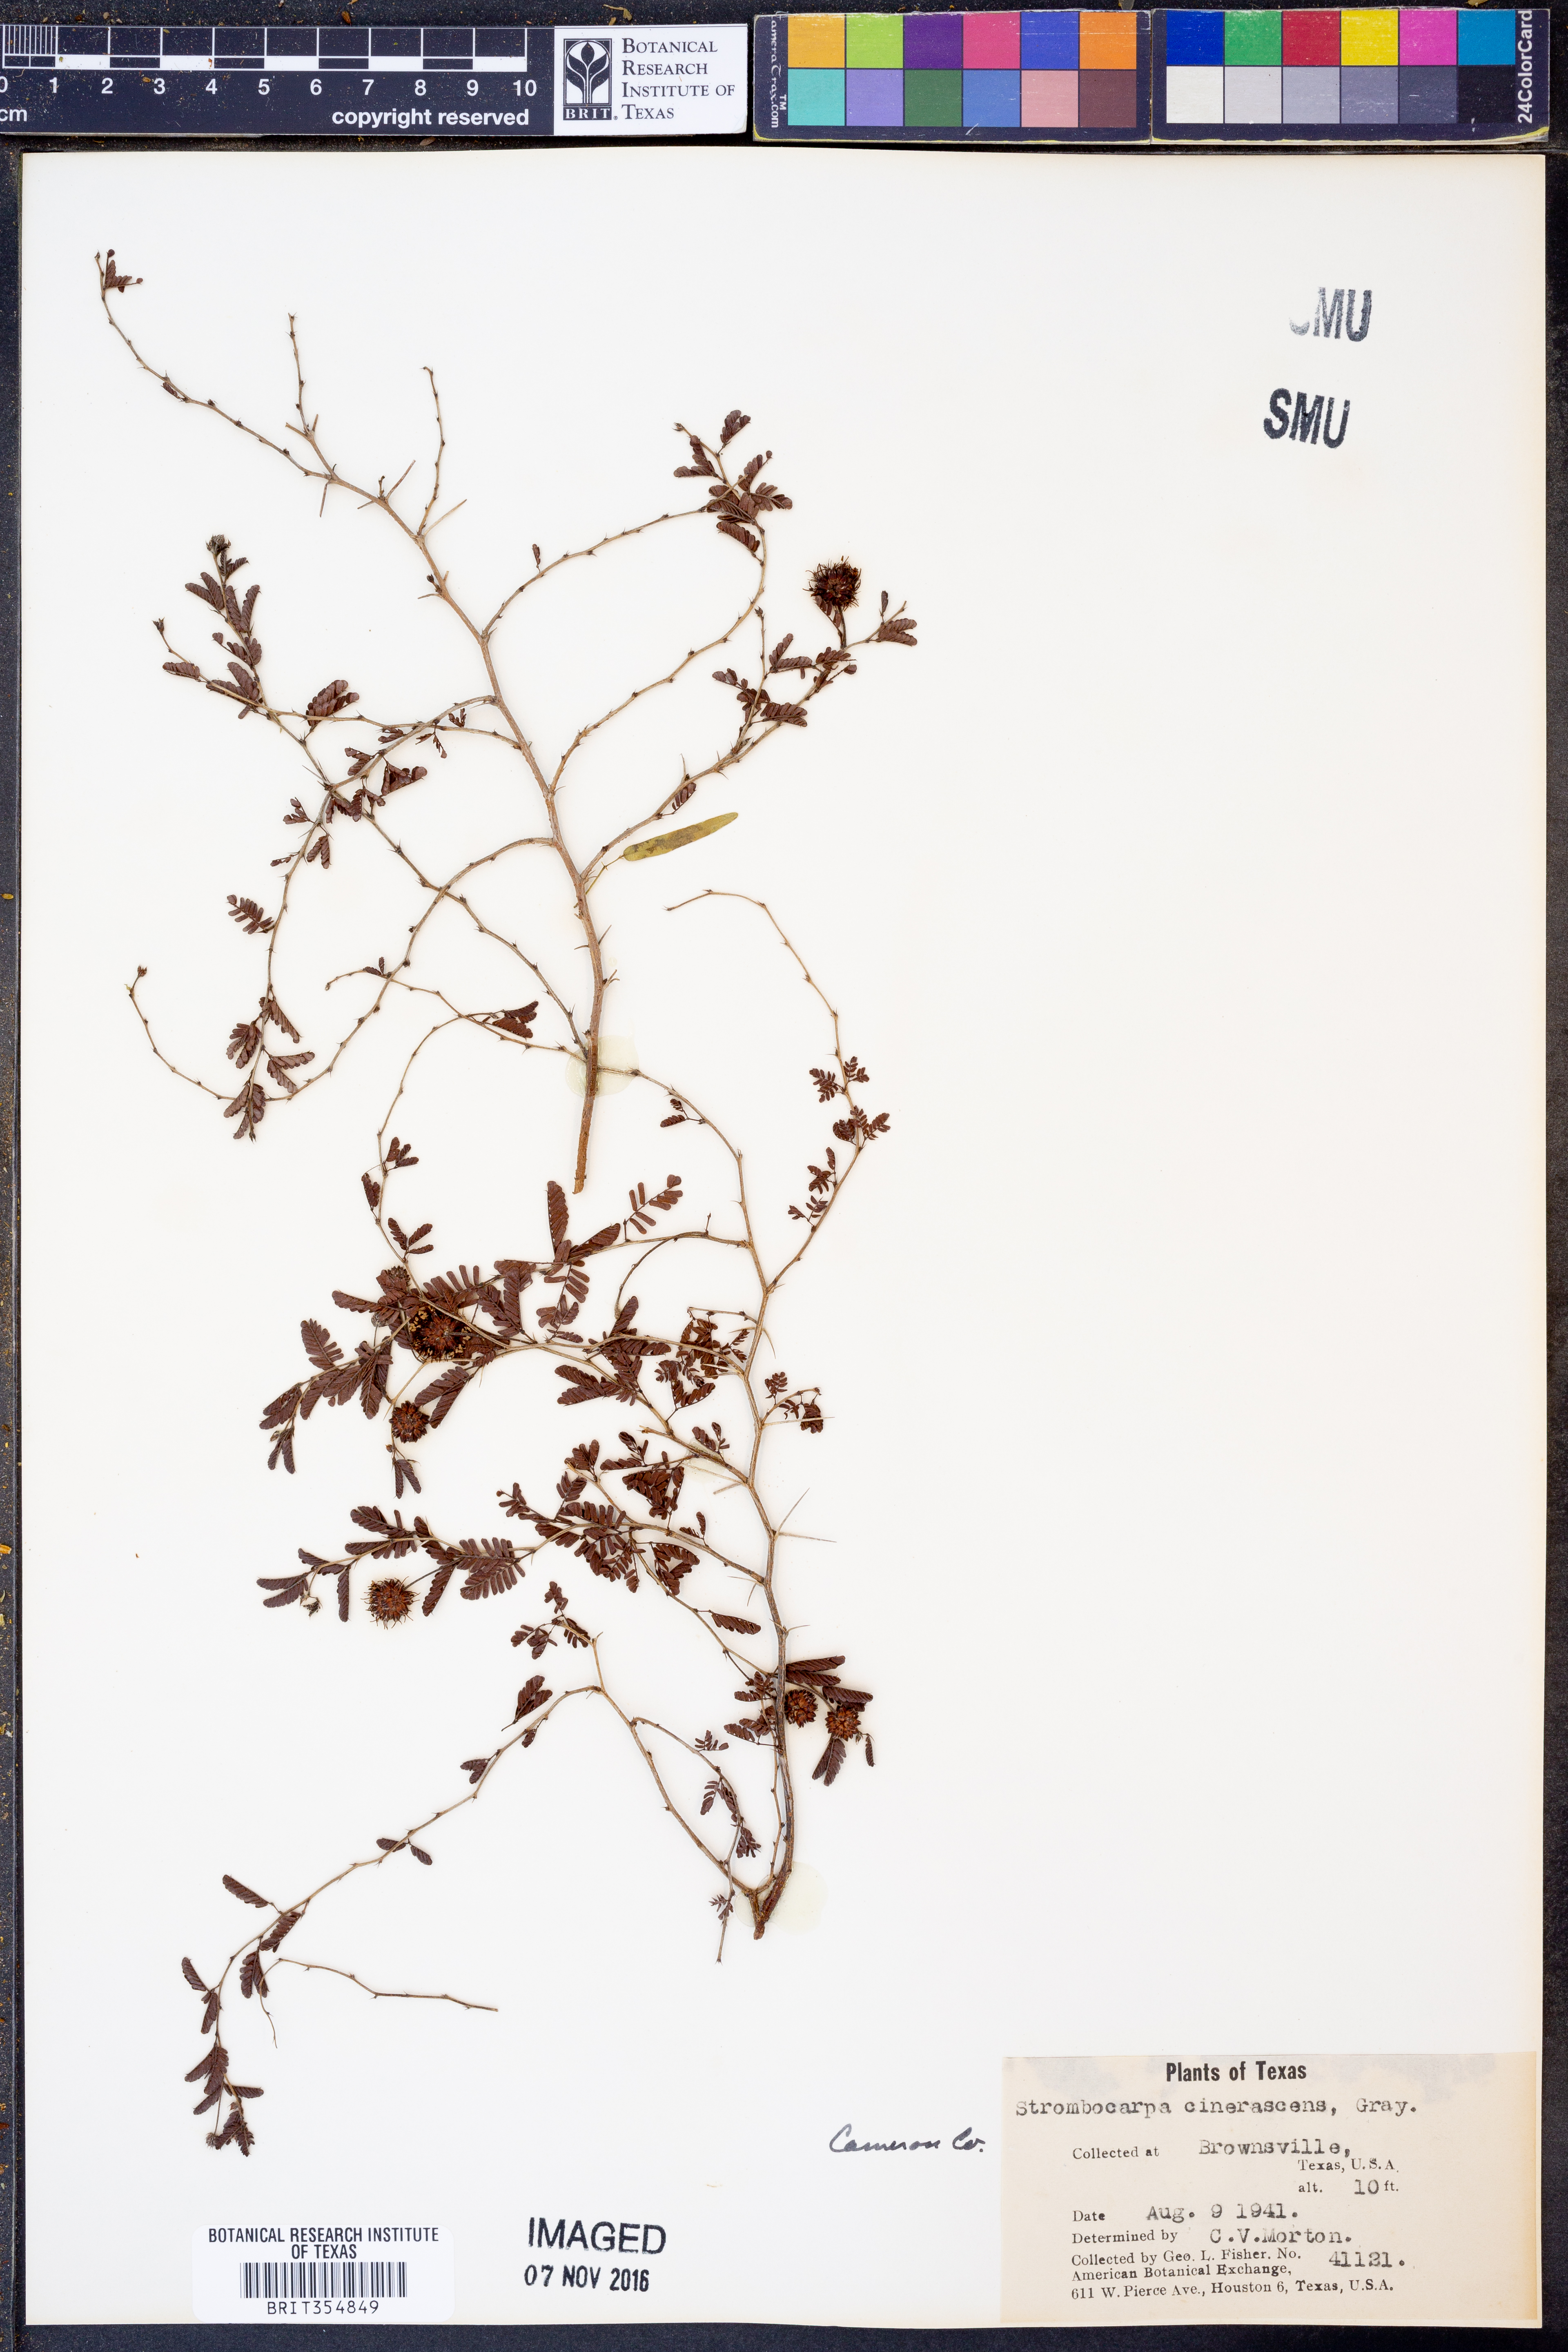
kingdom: Plantae
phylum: Tracheophyta
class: Magnoliopsida
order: Fabales
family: Fabaceae
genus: Prosopis
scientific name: Prosopis cinerascens
